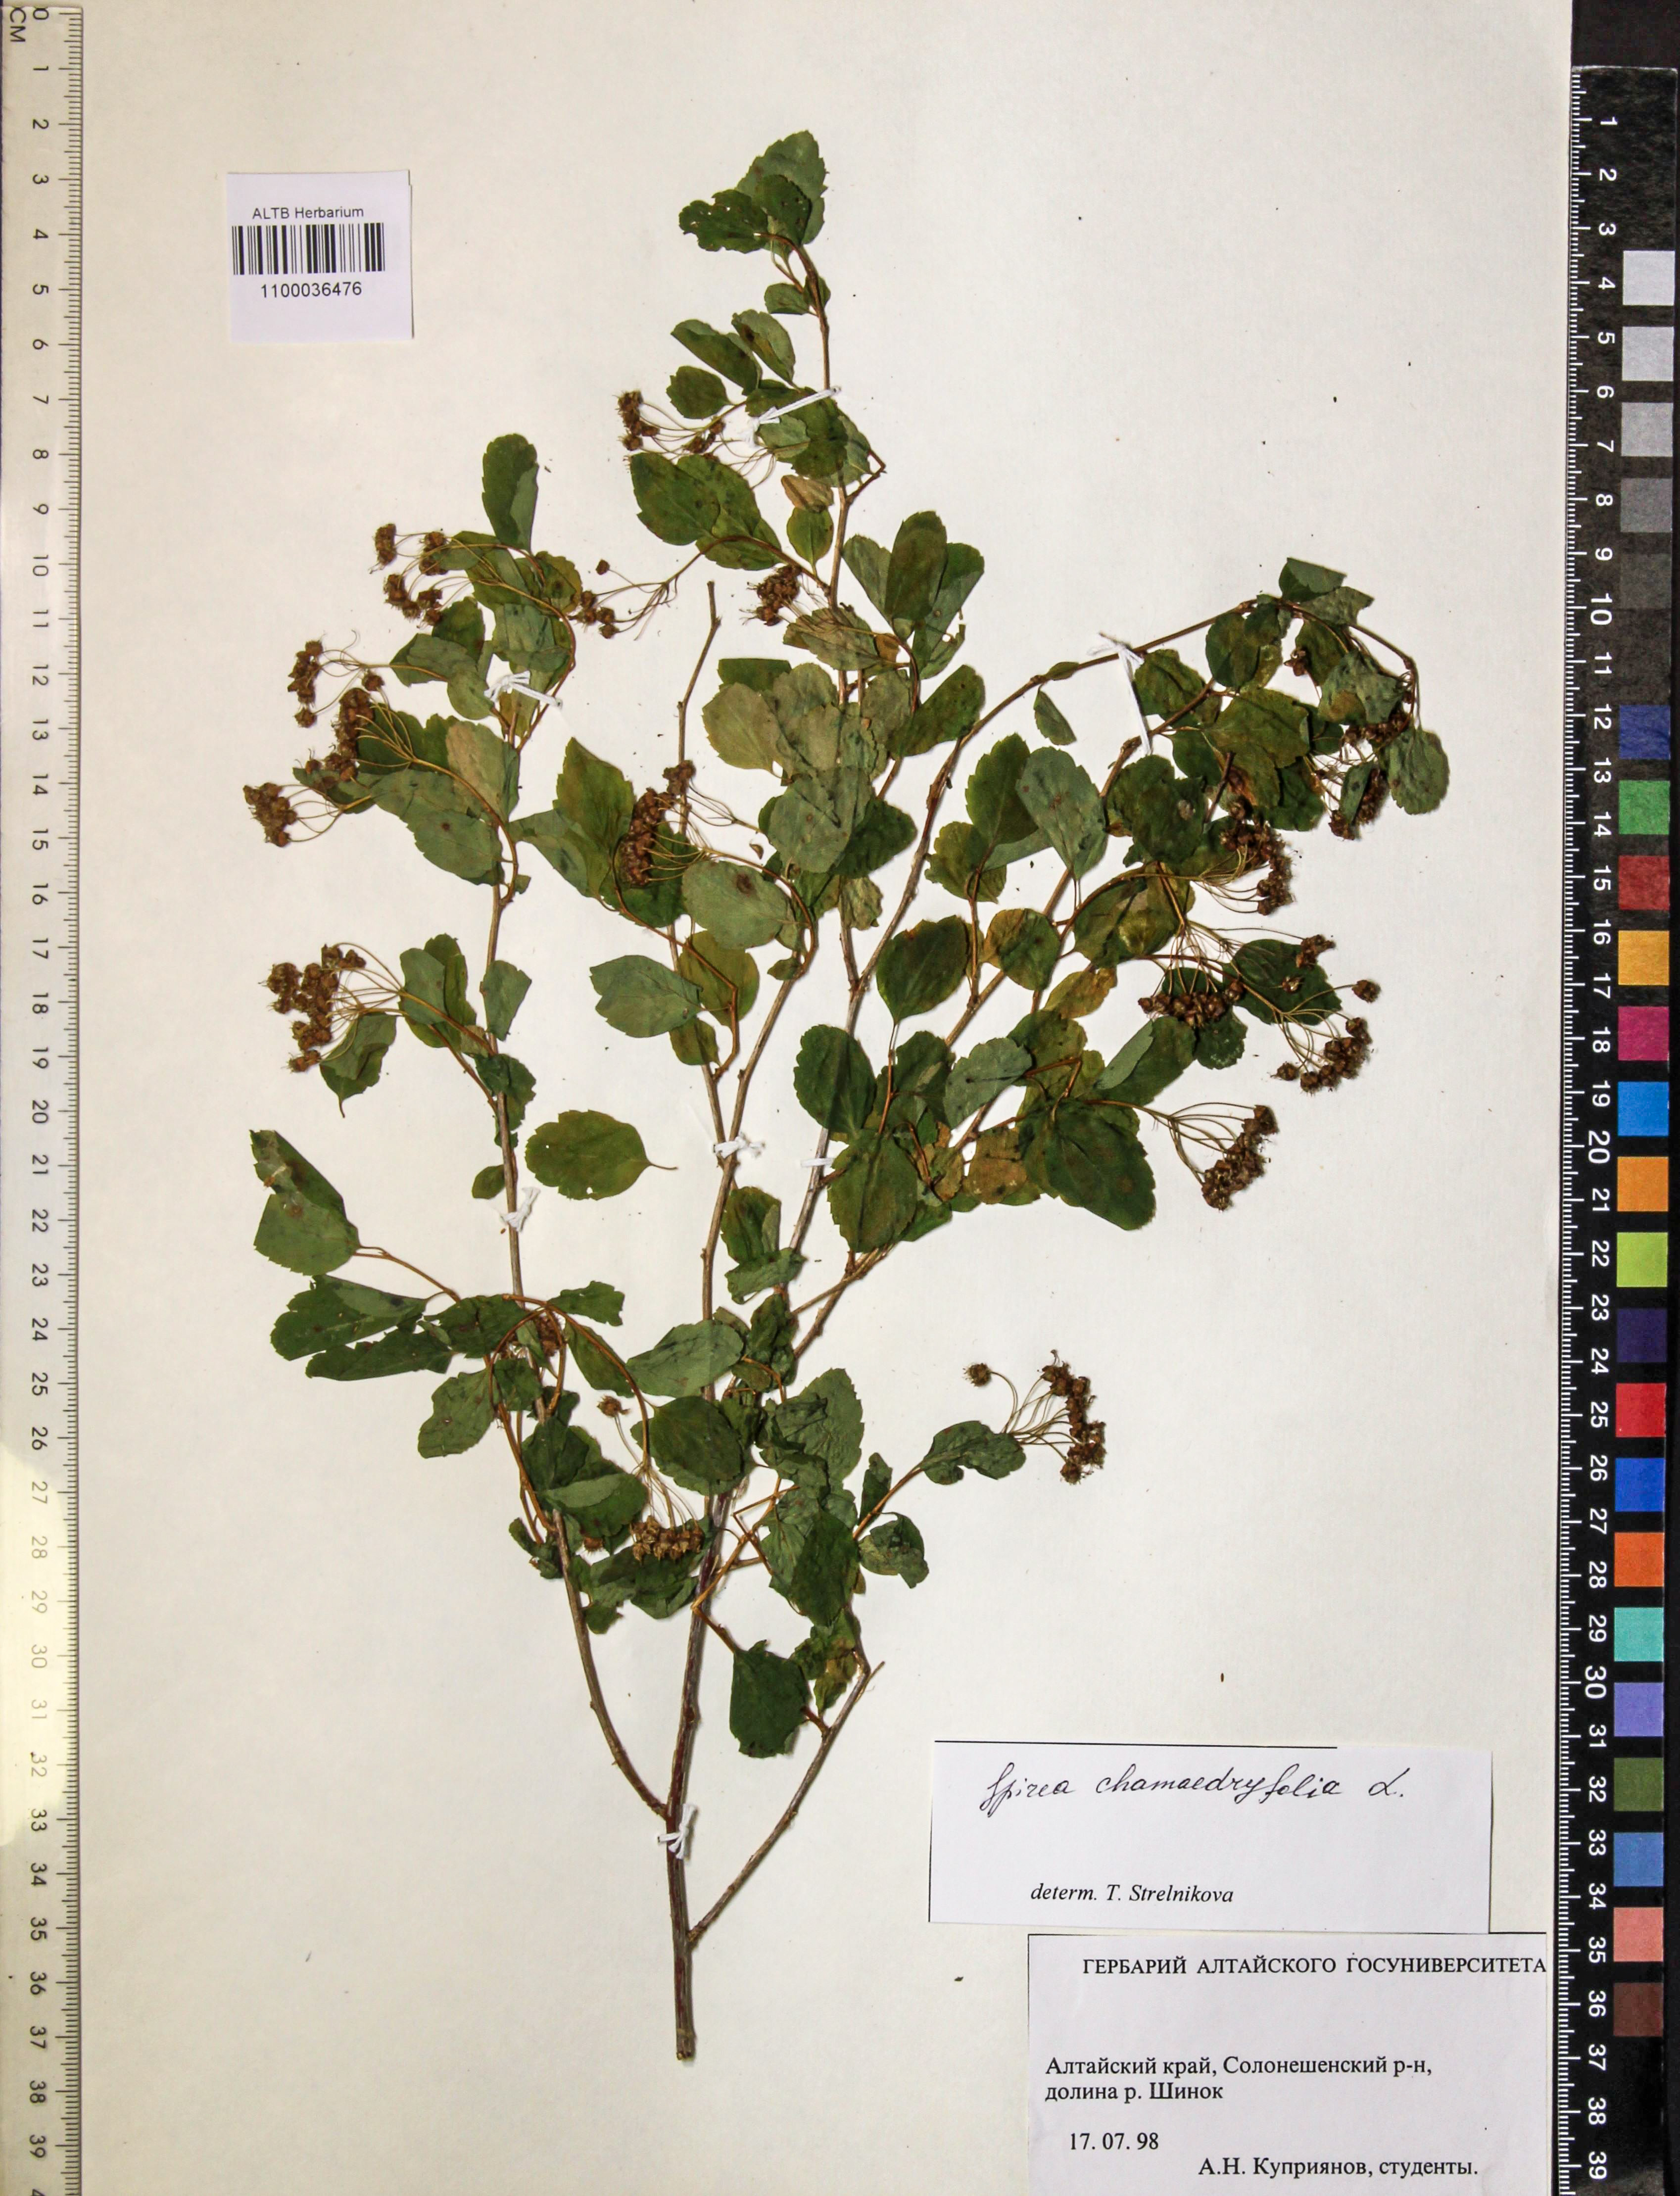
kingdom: Plantae
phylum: Tracheophyta
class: Magnoliopsida
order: Rosales
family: Rosaceae
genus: Spiraea
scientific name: Spiraea chamaedryfolia
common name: Elm-leaved spiraea
